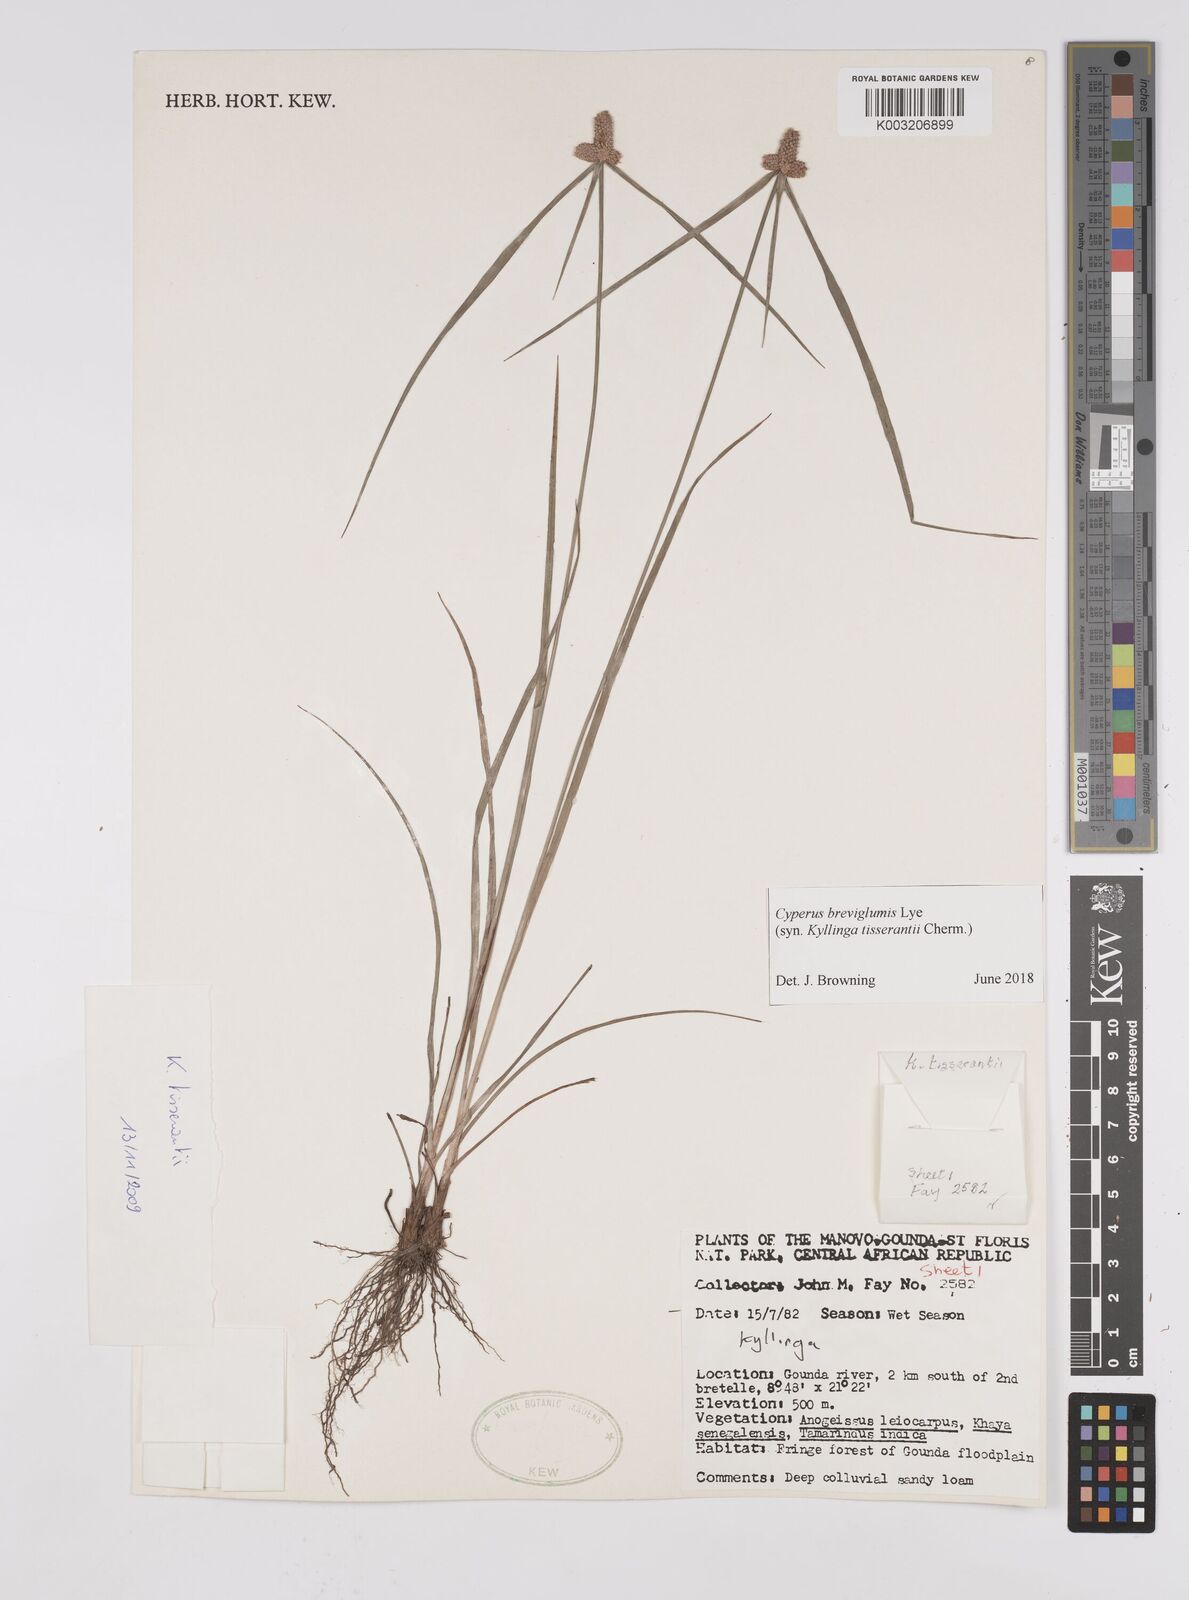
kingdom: Plantae
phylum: Tracheophyta
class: Liliopsida
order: Poales
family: Cyperaceae
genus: Cyperus
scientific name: Cyperus niveus
